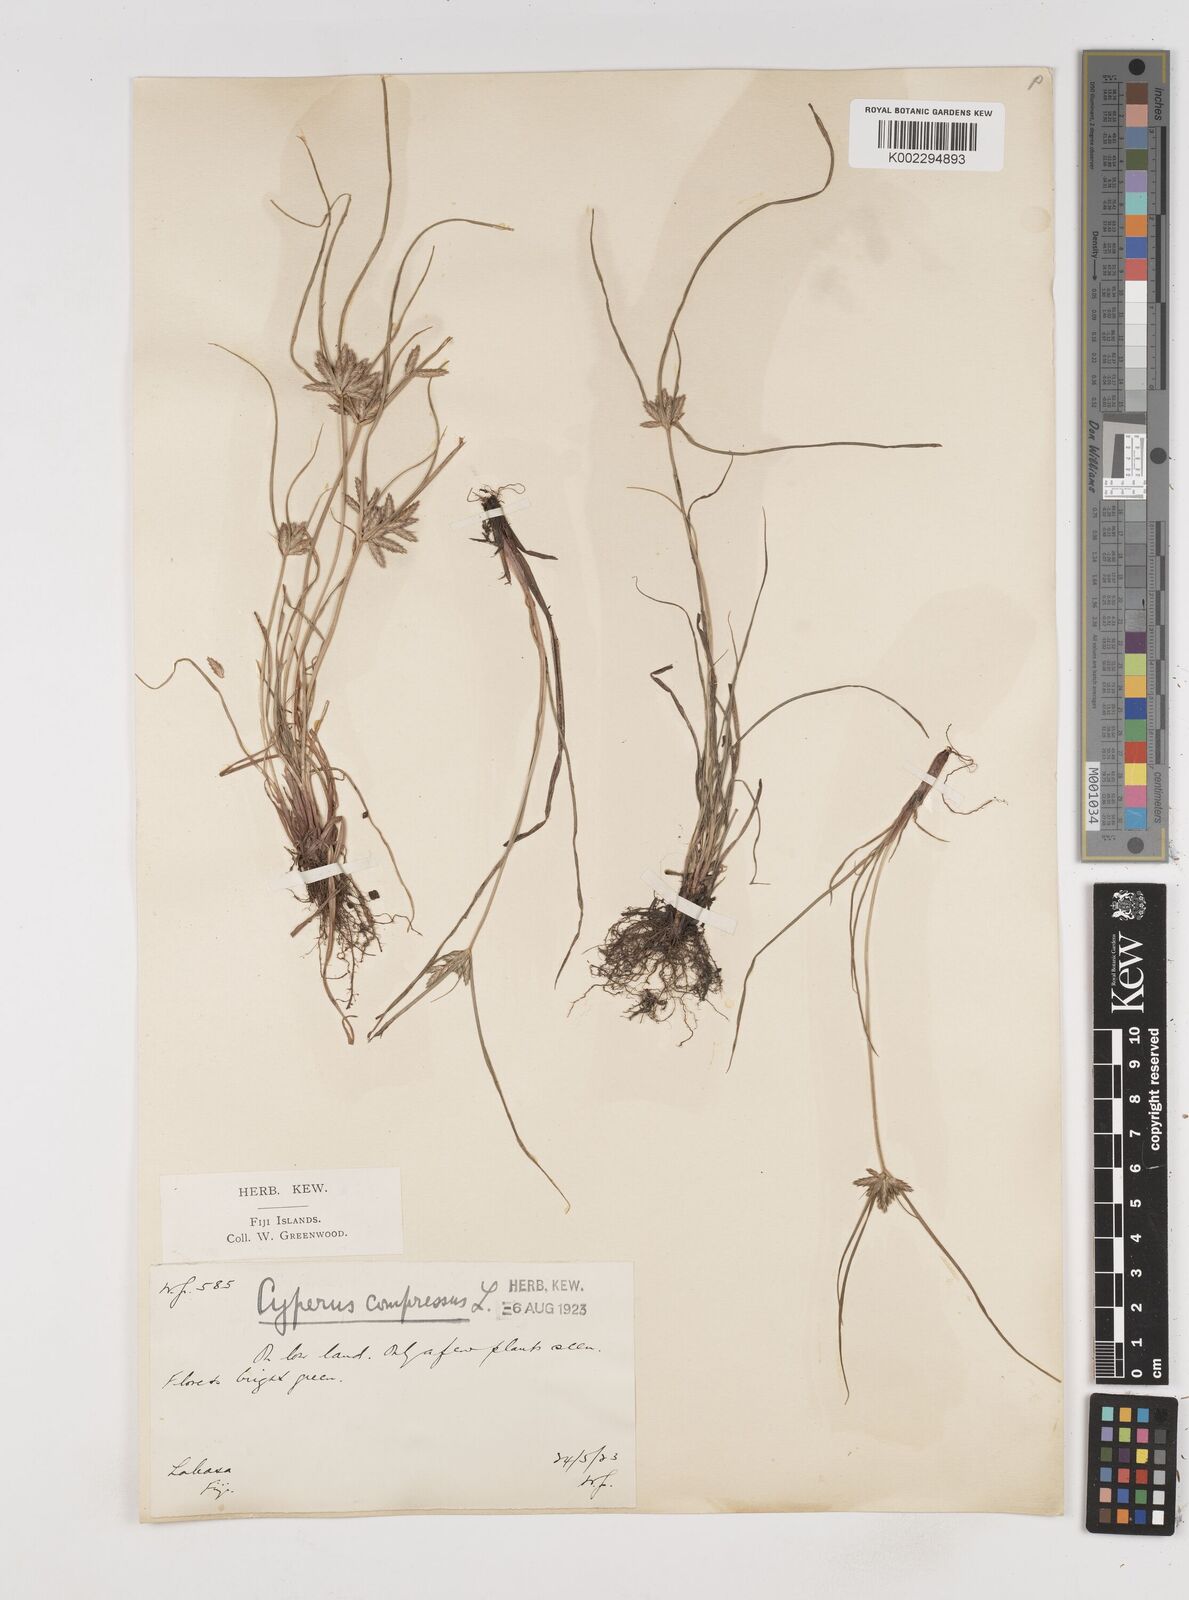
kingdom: Plantae
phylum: Tracheophyta
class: Liliopsida
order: Poales
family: Cyperaceae
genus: Cyperus
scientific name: Cyperus compressus
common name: Poorland flatsedge
